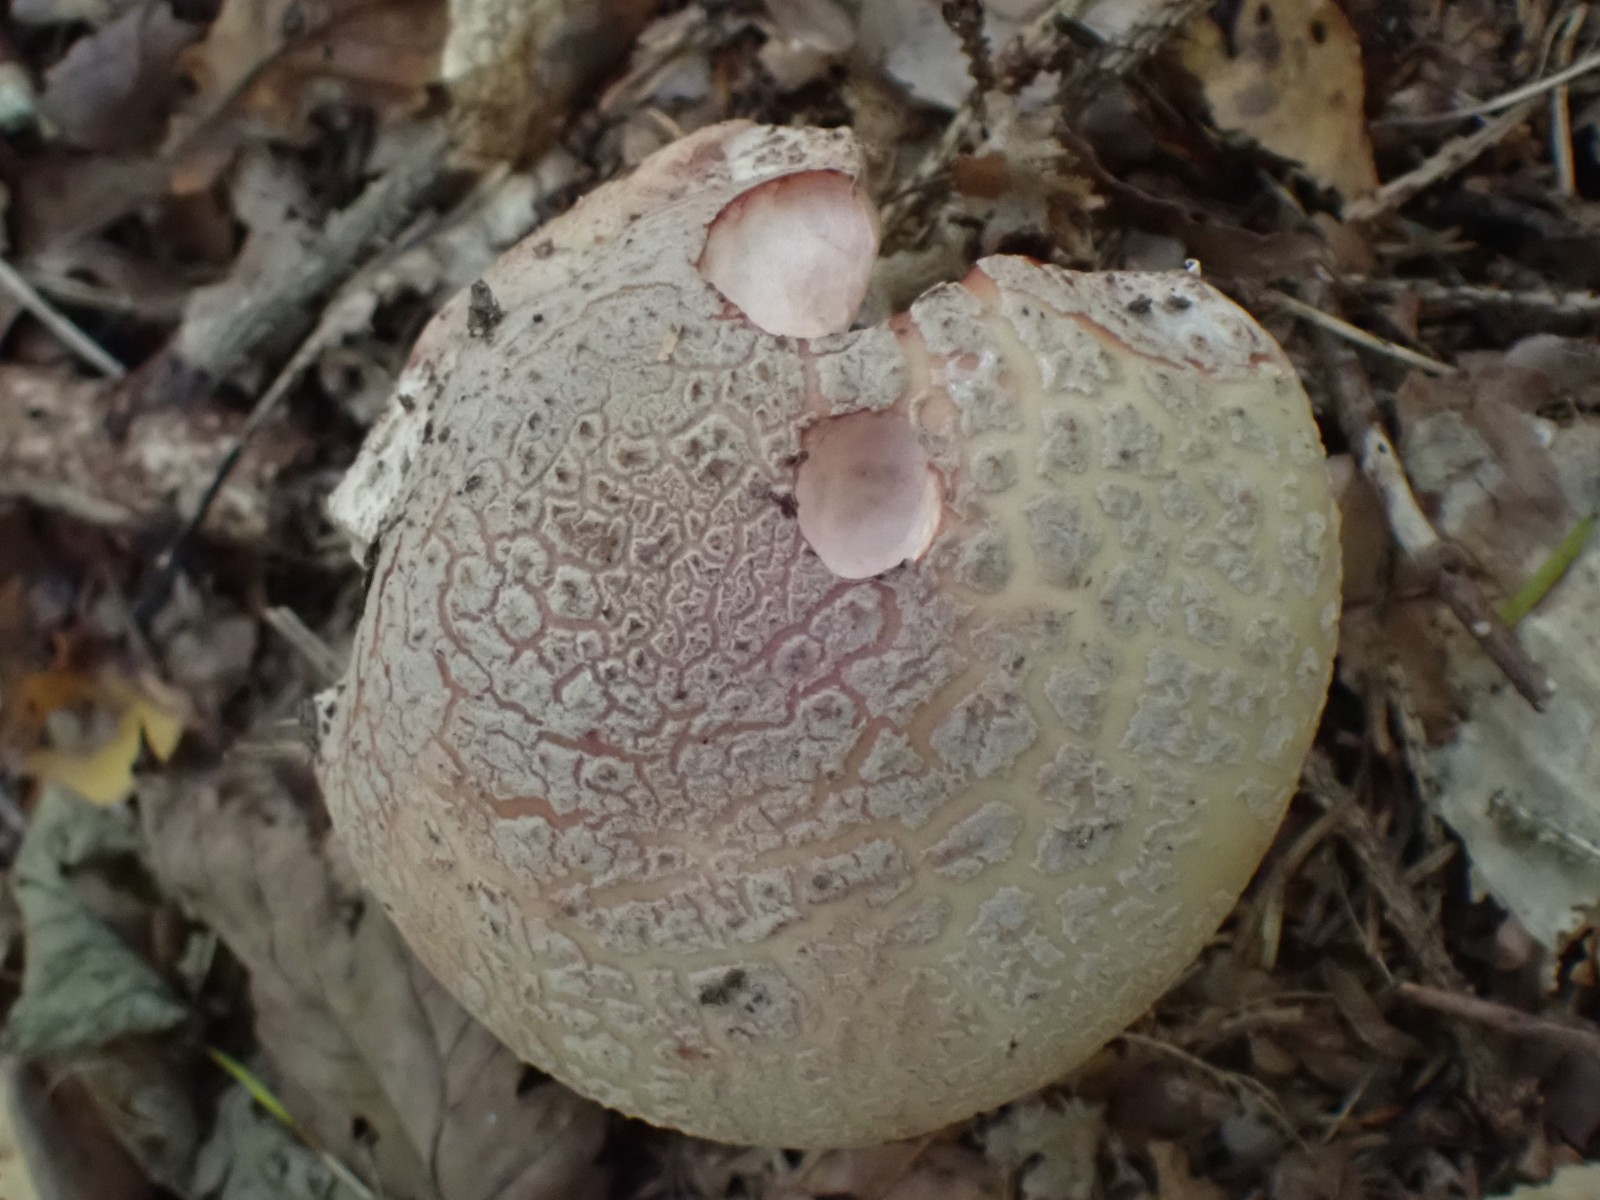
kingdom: Fungi
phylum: Basidiomycota
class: Agaricomycetes
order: Agaricales
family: Amanitaceae
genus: Amanita
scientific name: Amanita rubescens
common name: rødmende fluesvamp
